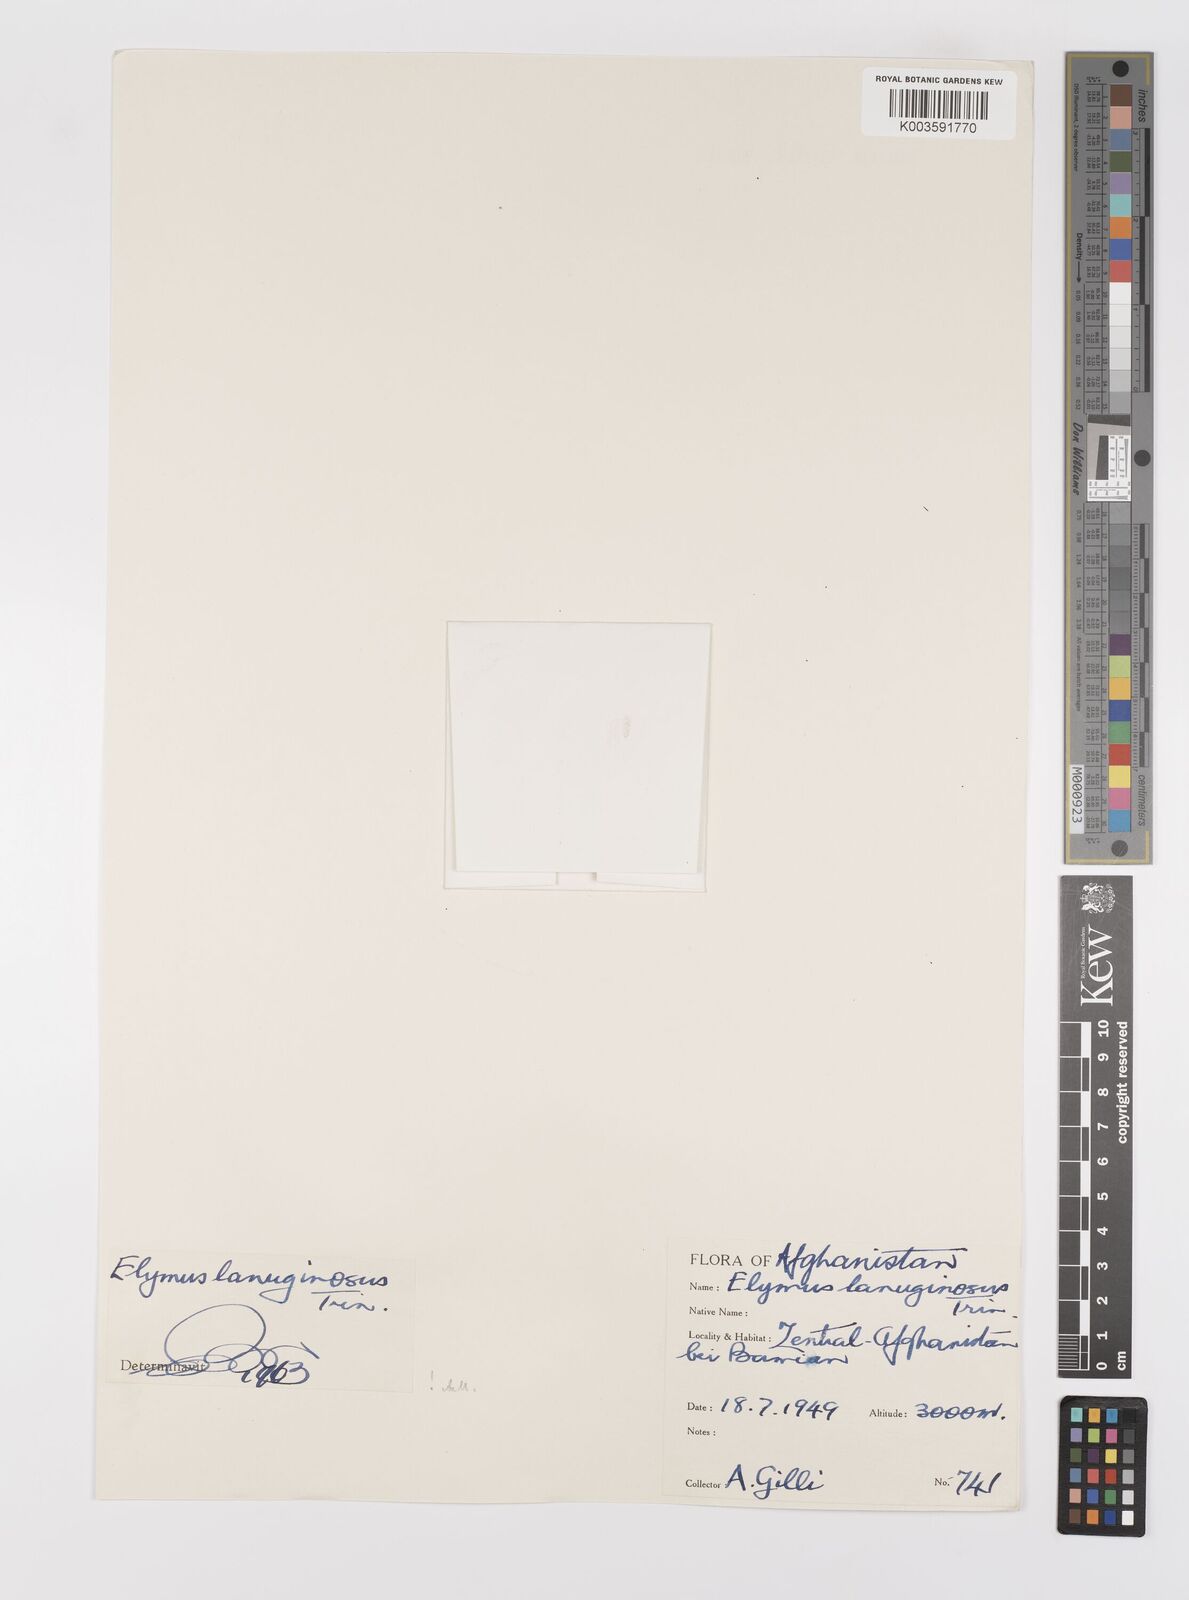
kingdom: Plantae
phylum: Tracheophyta
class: Liliopsida
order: Poales
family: Poaceae
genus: Psathyrostachys
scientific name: Psathyrostachys lanuginosa
